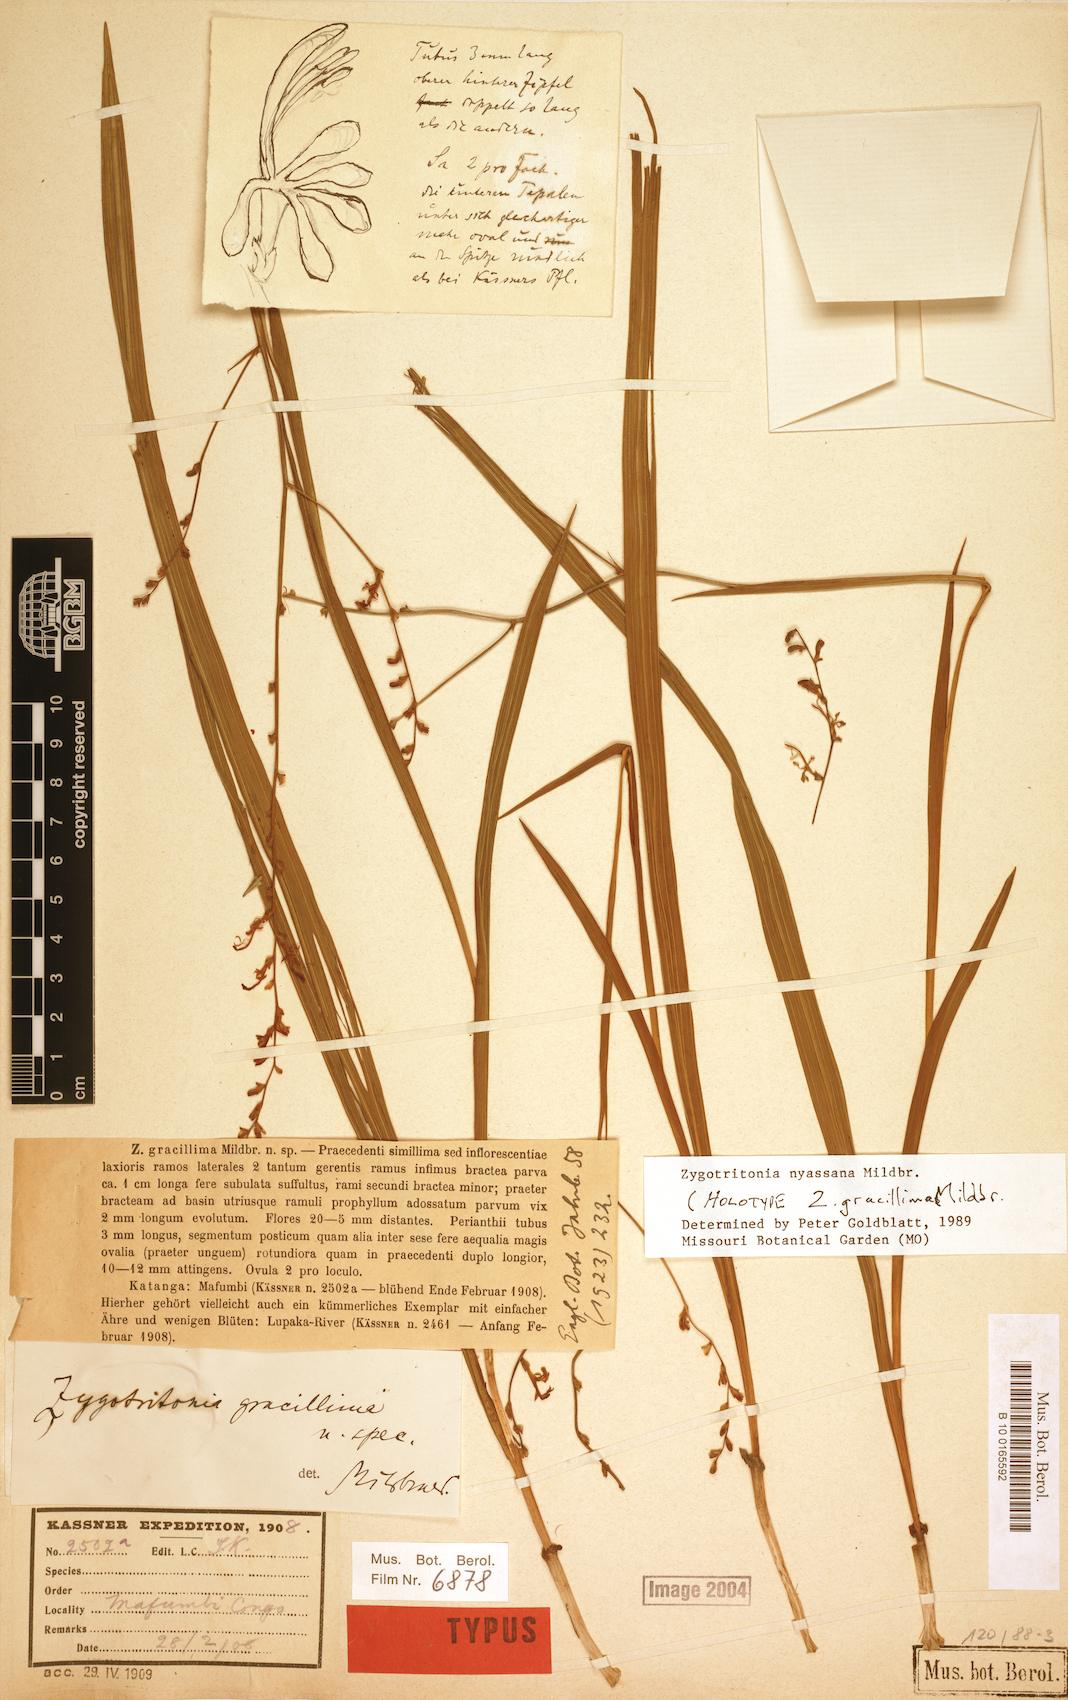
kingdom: Plantae
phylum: Tracheophyta
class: Liliopsida
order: Asparagales
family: Iridaceae
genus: Zygotritonia
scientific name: Zygotritonia nyassana
